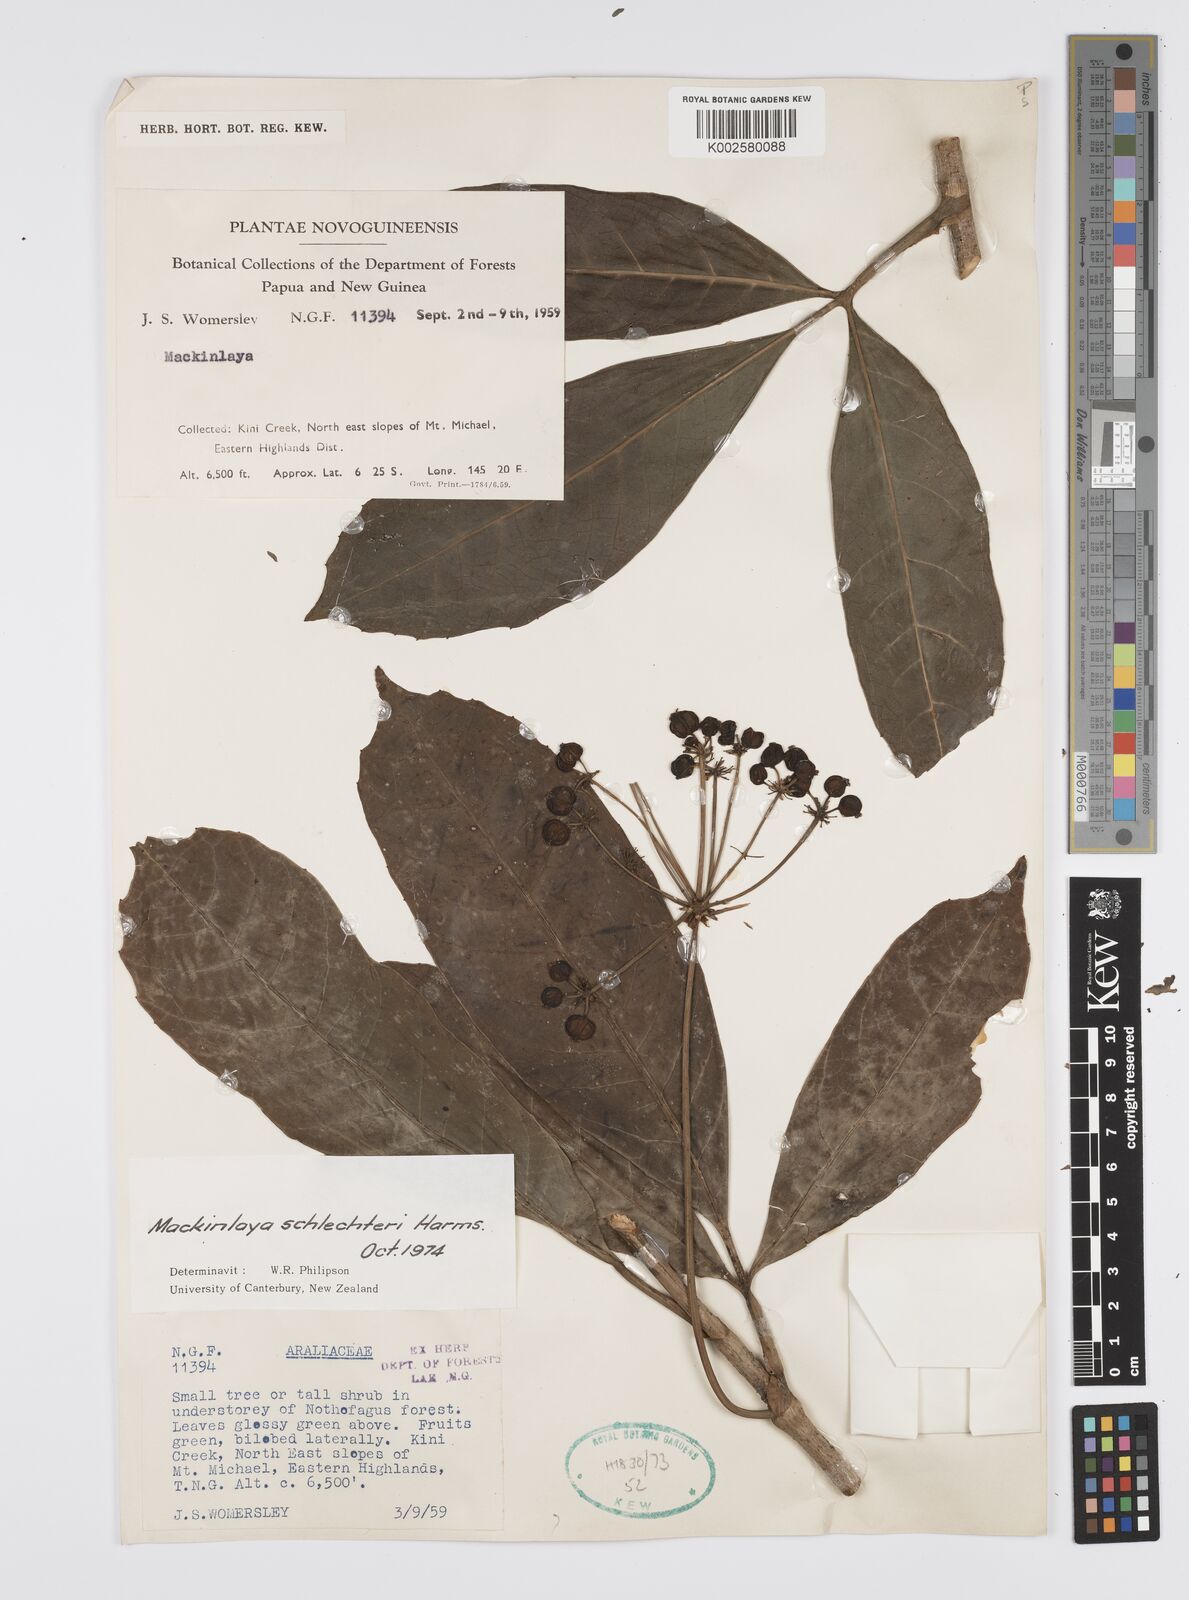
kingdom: Plantae
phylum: Tracheophyta
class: Magnoliopsida
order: Apiales
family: Apiaceae
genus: Mackinlaya
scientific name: Mackinlaya schlechteri
